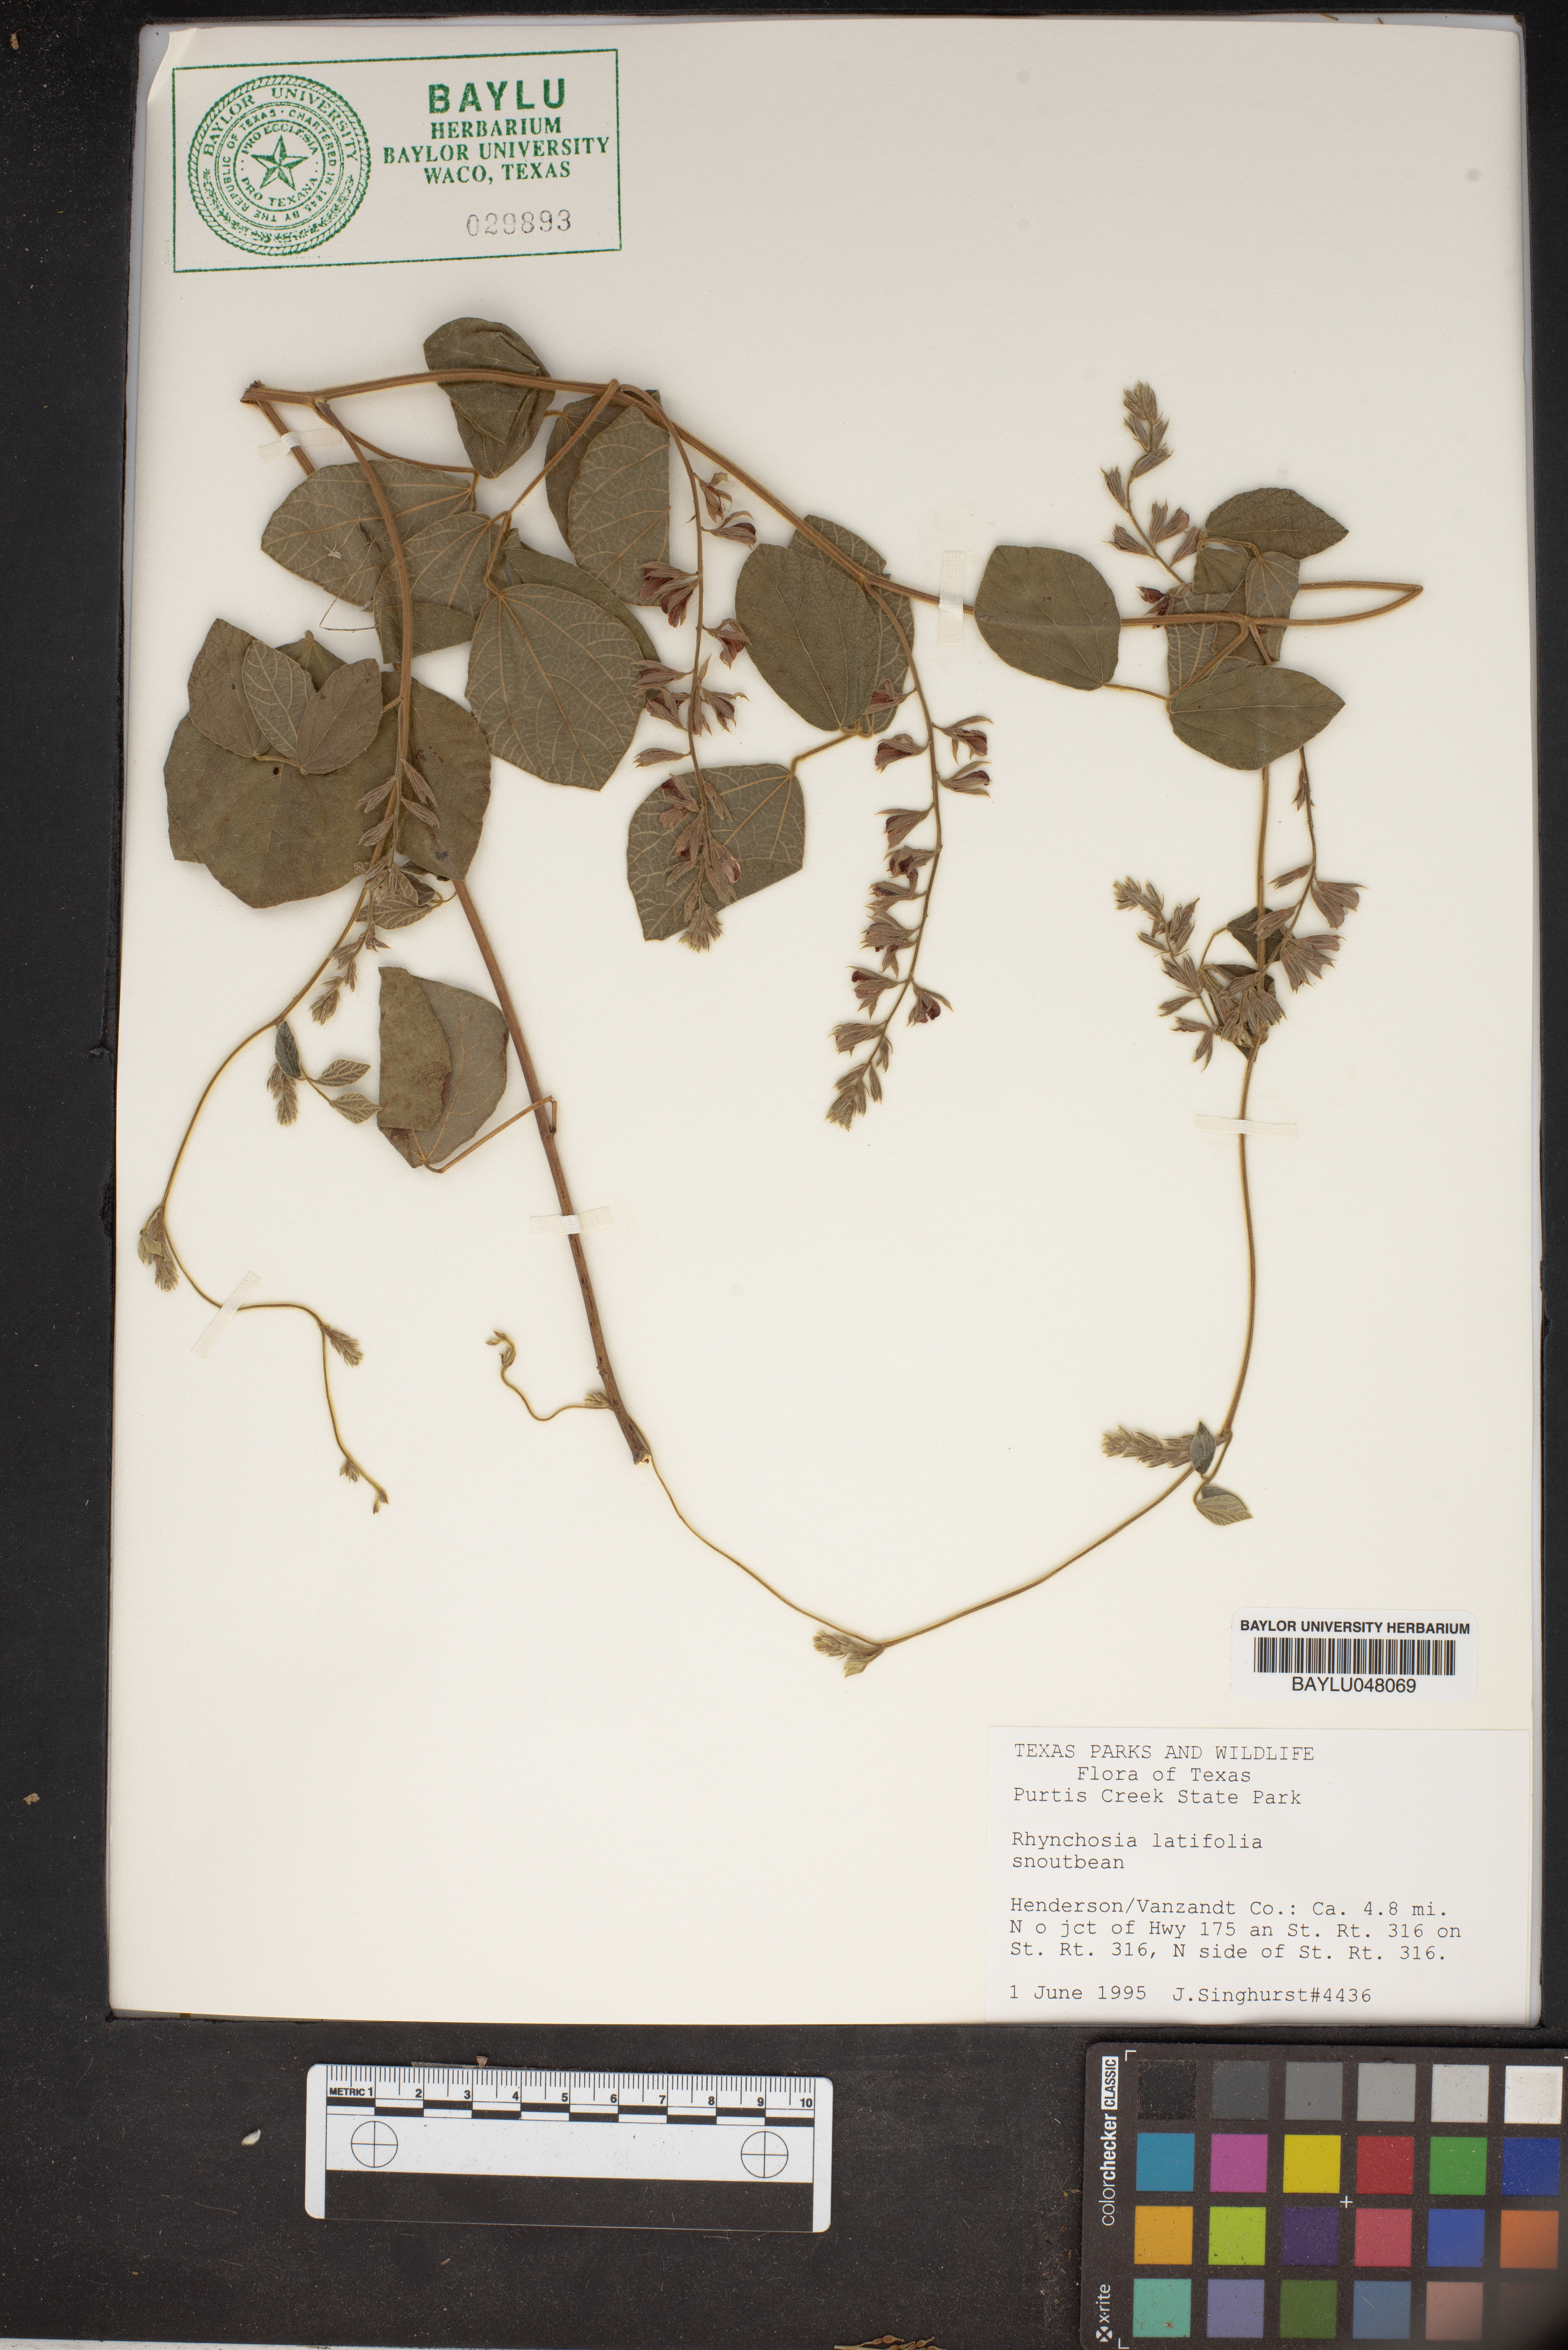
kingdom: Plantae
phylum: Tracheophyta
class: Magnoliopsida
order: Fabales
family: Fabaceae
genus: Rhynchosia
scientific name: Rhynchosia latifolia
